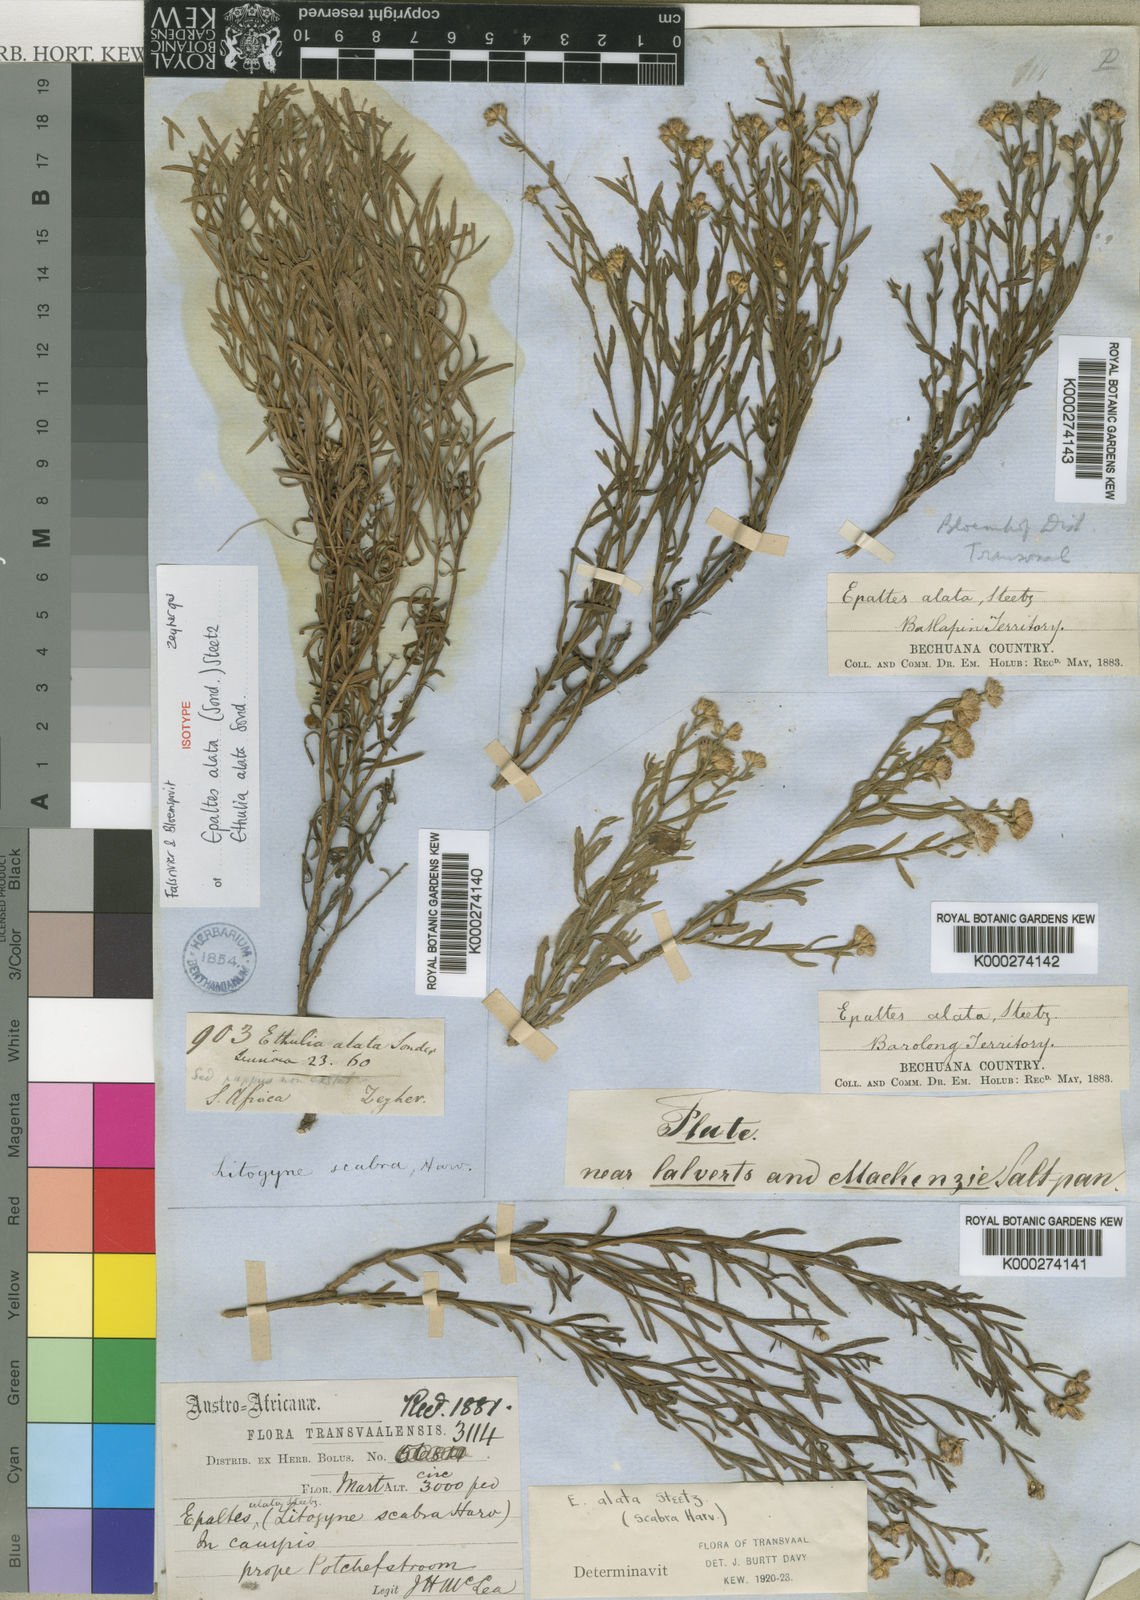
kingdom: Plantae
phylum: Tracheophyta
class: Magnoliopsida
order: Asterales
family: Asteraceae
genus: Litogyne
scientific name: Litogyne gariepina
